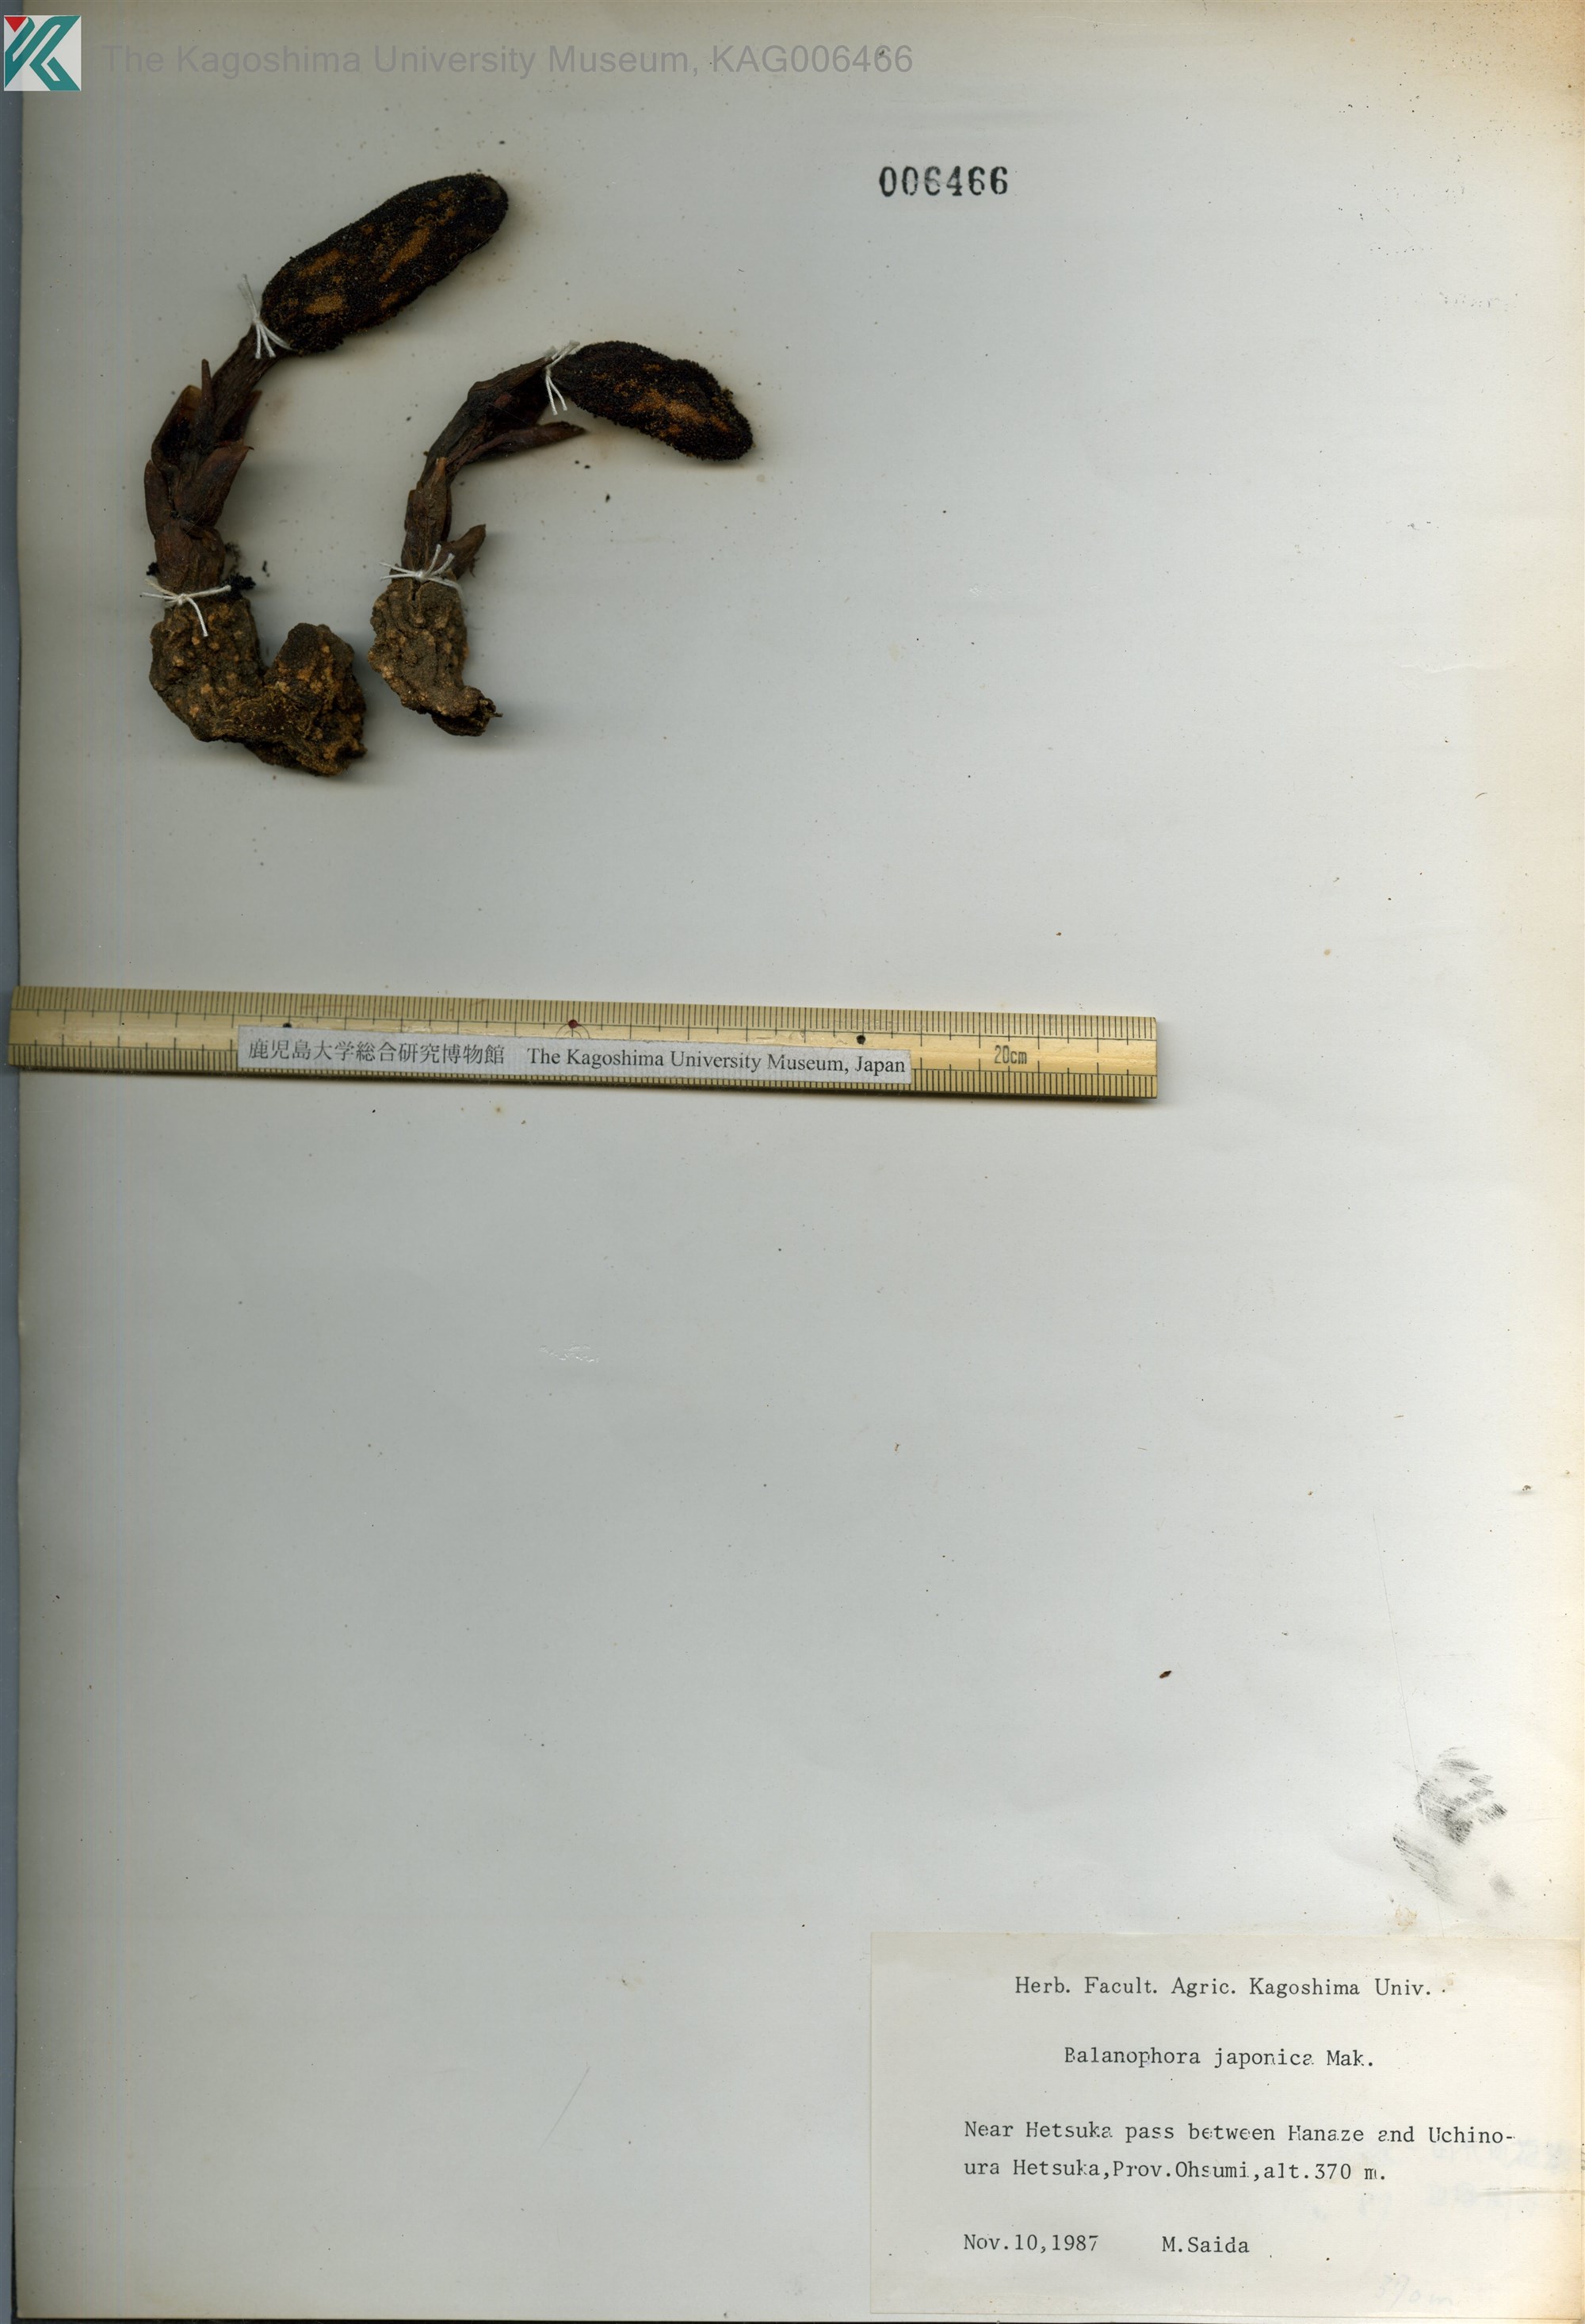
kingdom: Plantae
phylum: Tracheophyta
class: Magnoliopsida
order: Santalales
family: Balanophoraceae
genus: Balanophora
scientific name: Balanophora japonica
